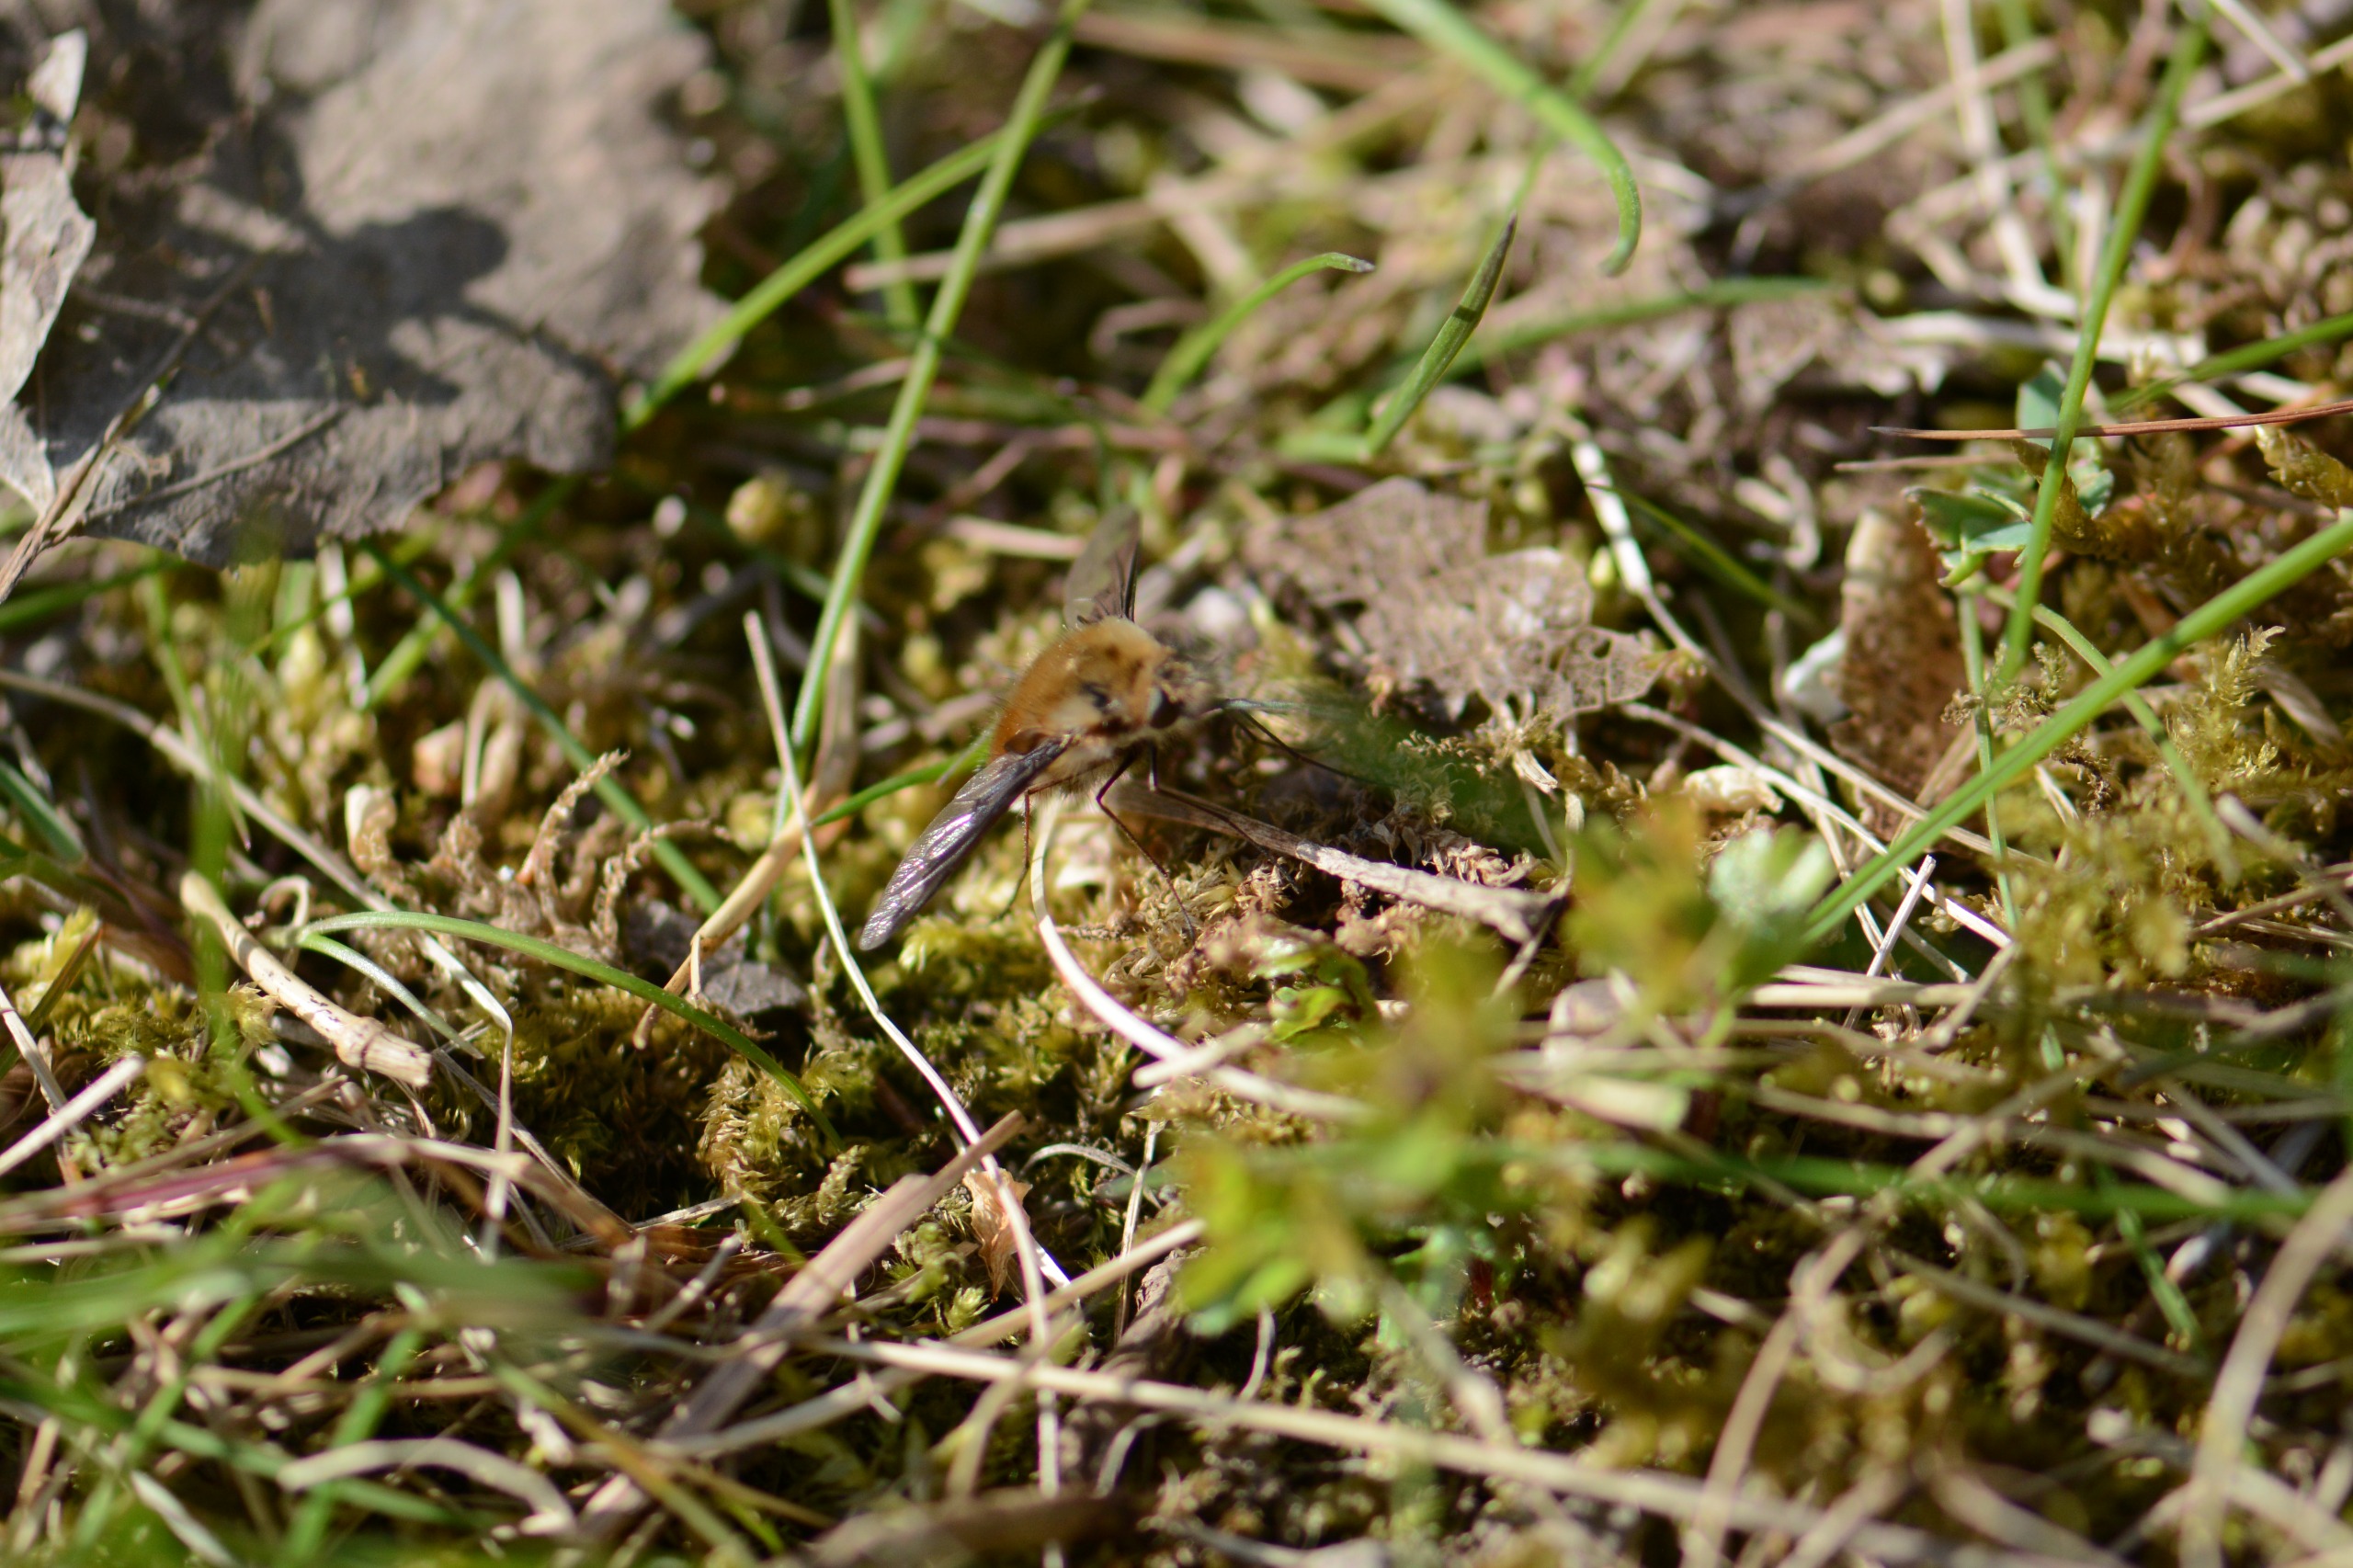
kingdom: Animalia
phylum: Arthropoda
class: Insecta
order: Diptera
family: Bombyliidae
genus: Bombylius
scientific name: Bombylius major
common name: Stor humleflue
